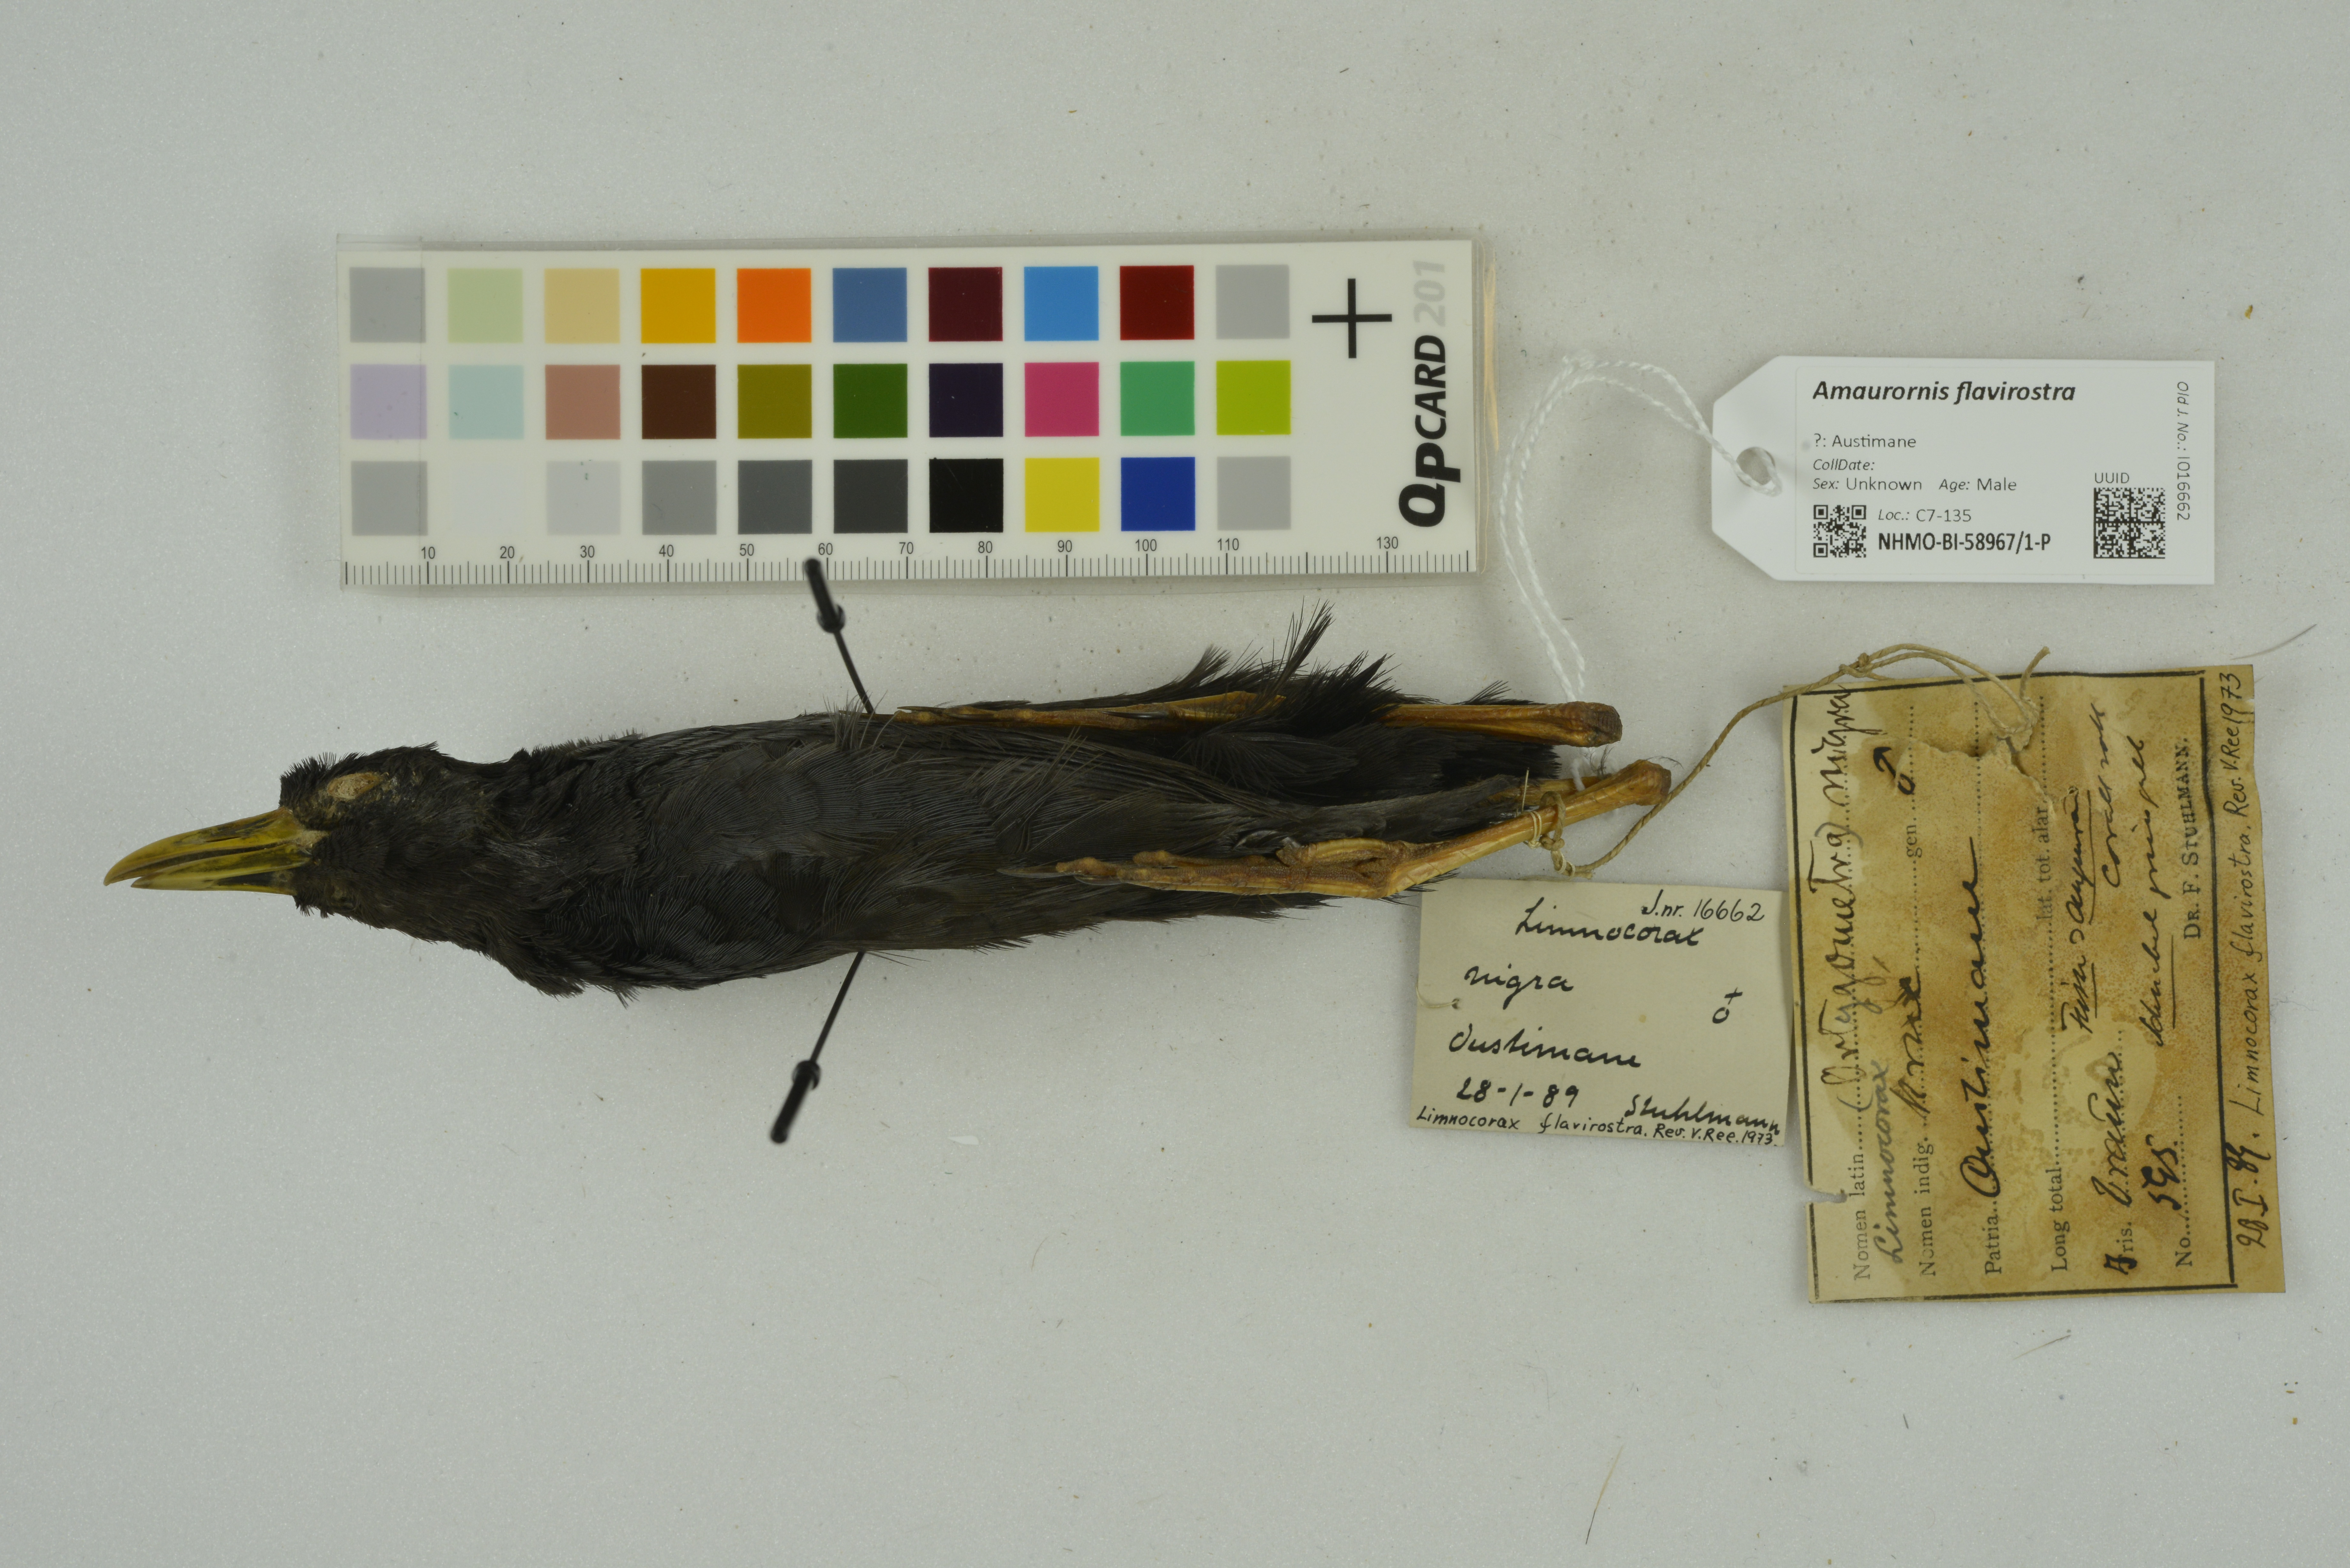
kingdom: Animalia
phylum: Chordata
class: Aves
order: Gruiformes
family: Rallidae
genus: Amaurornis
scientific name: Amaurornis flavirostra
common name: Black crake
